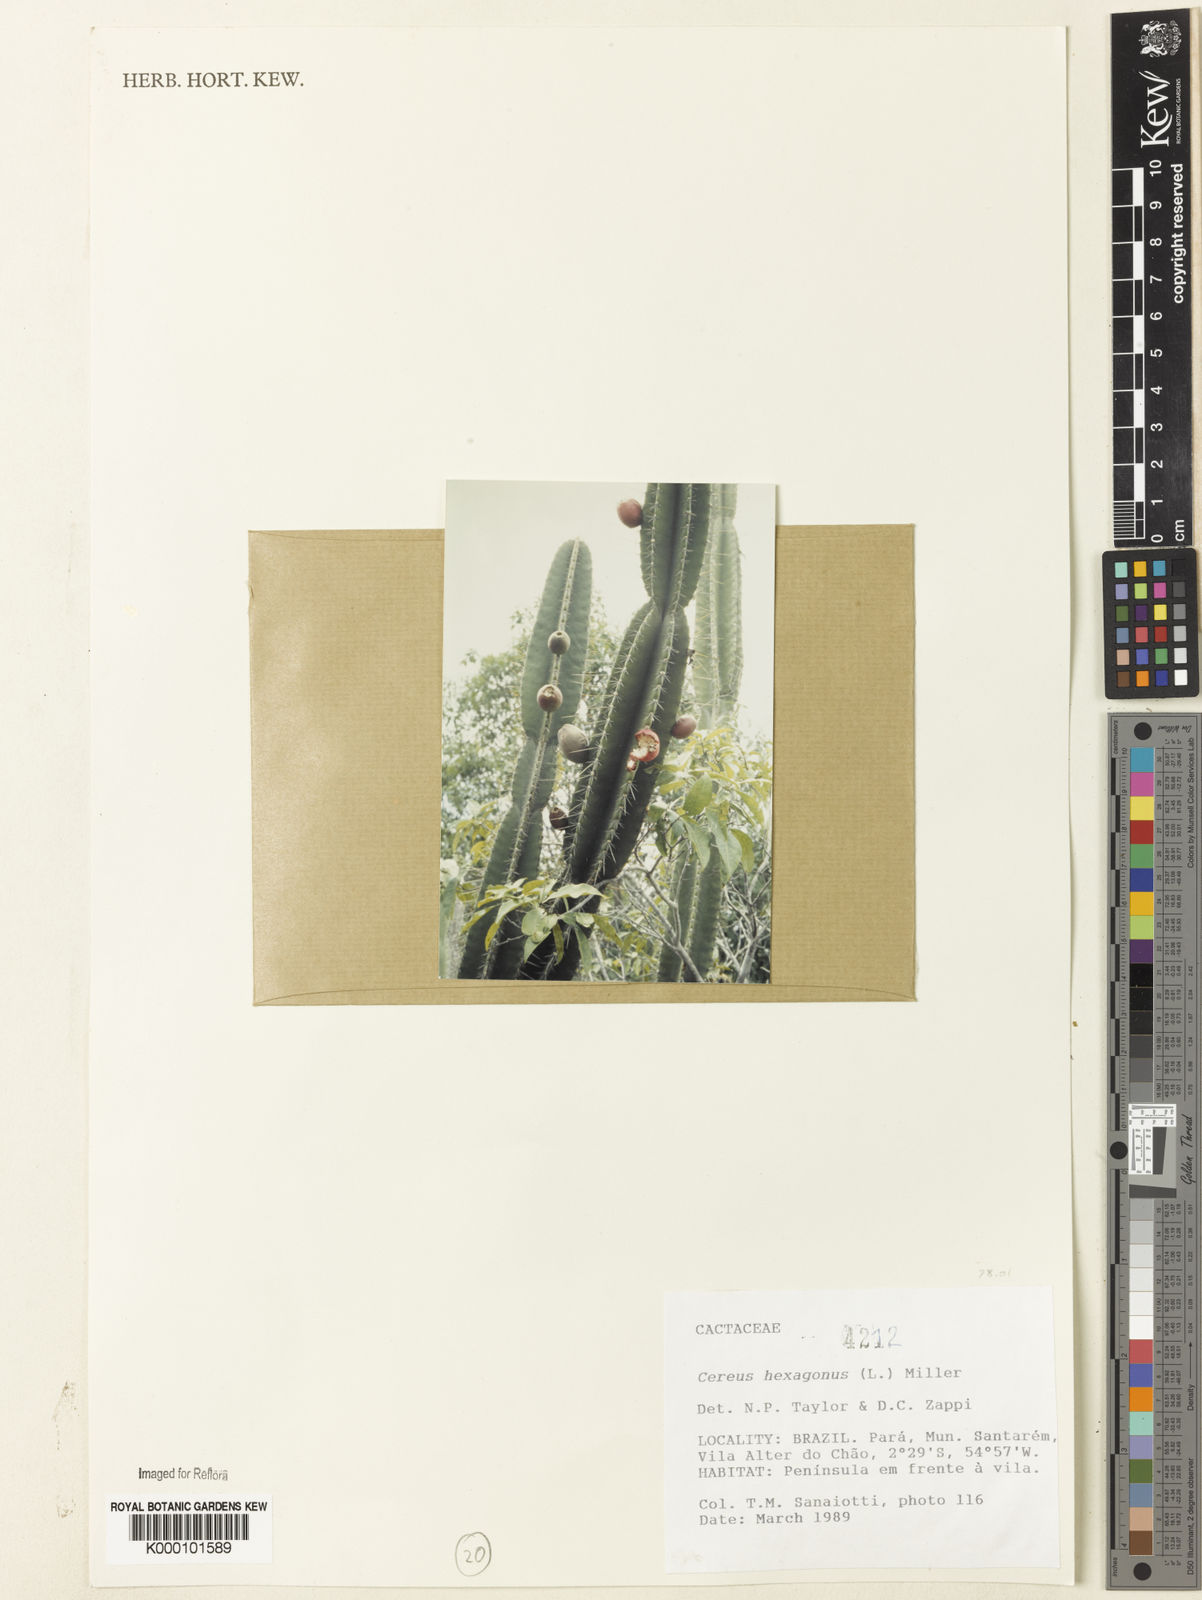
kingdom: Plantae
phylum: Tracheophyta
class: Magnoliopsida
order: Caryophyllales
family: Cactaceae
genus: Cereus
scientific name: Cereus hexagonus
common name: Lady of the night cactus
